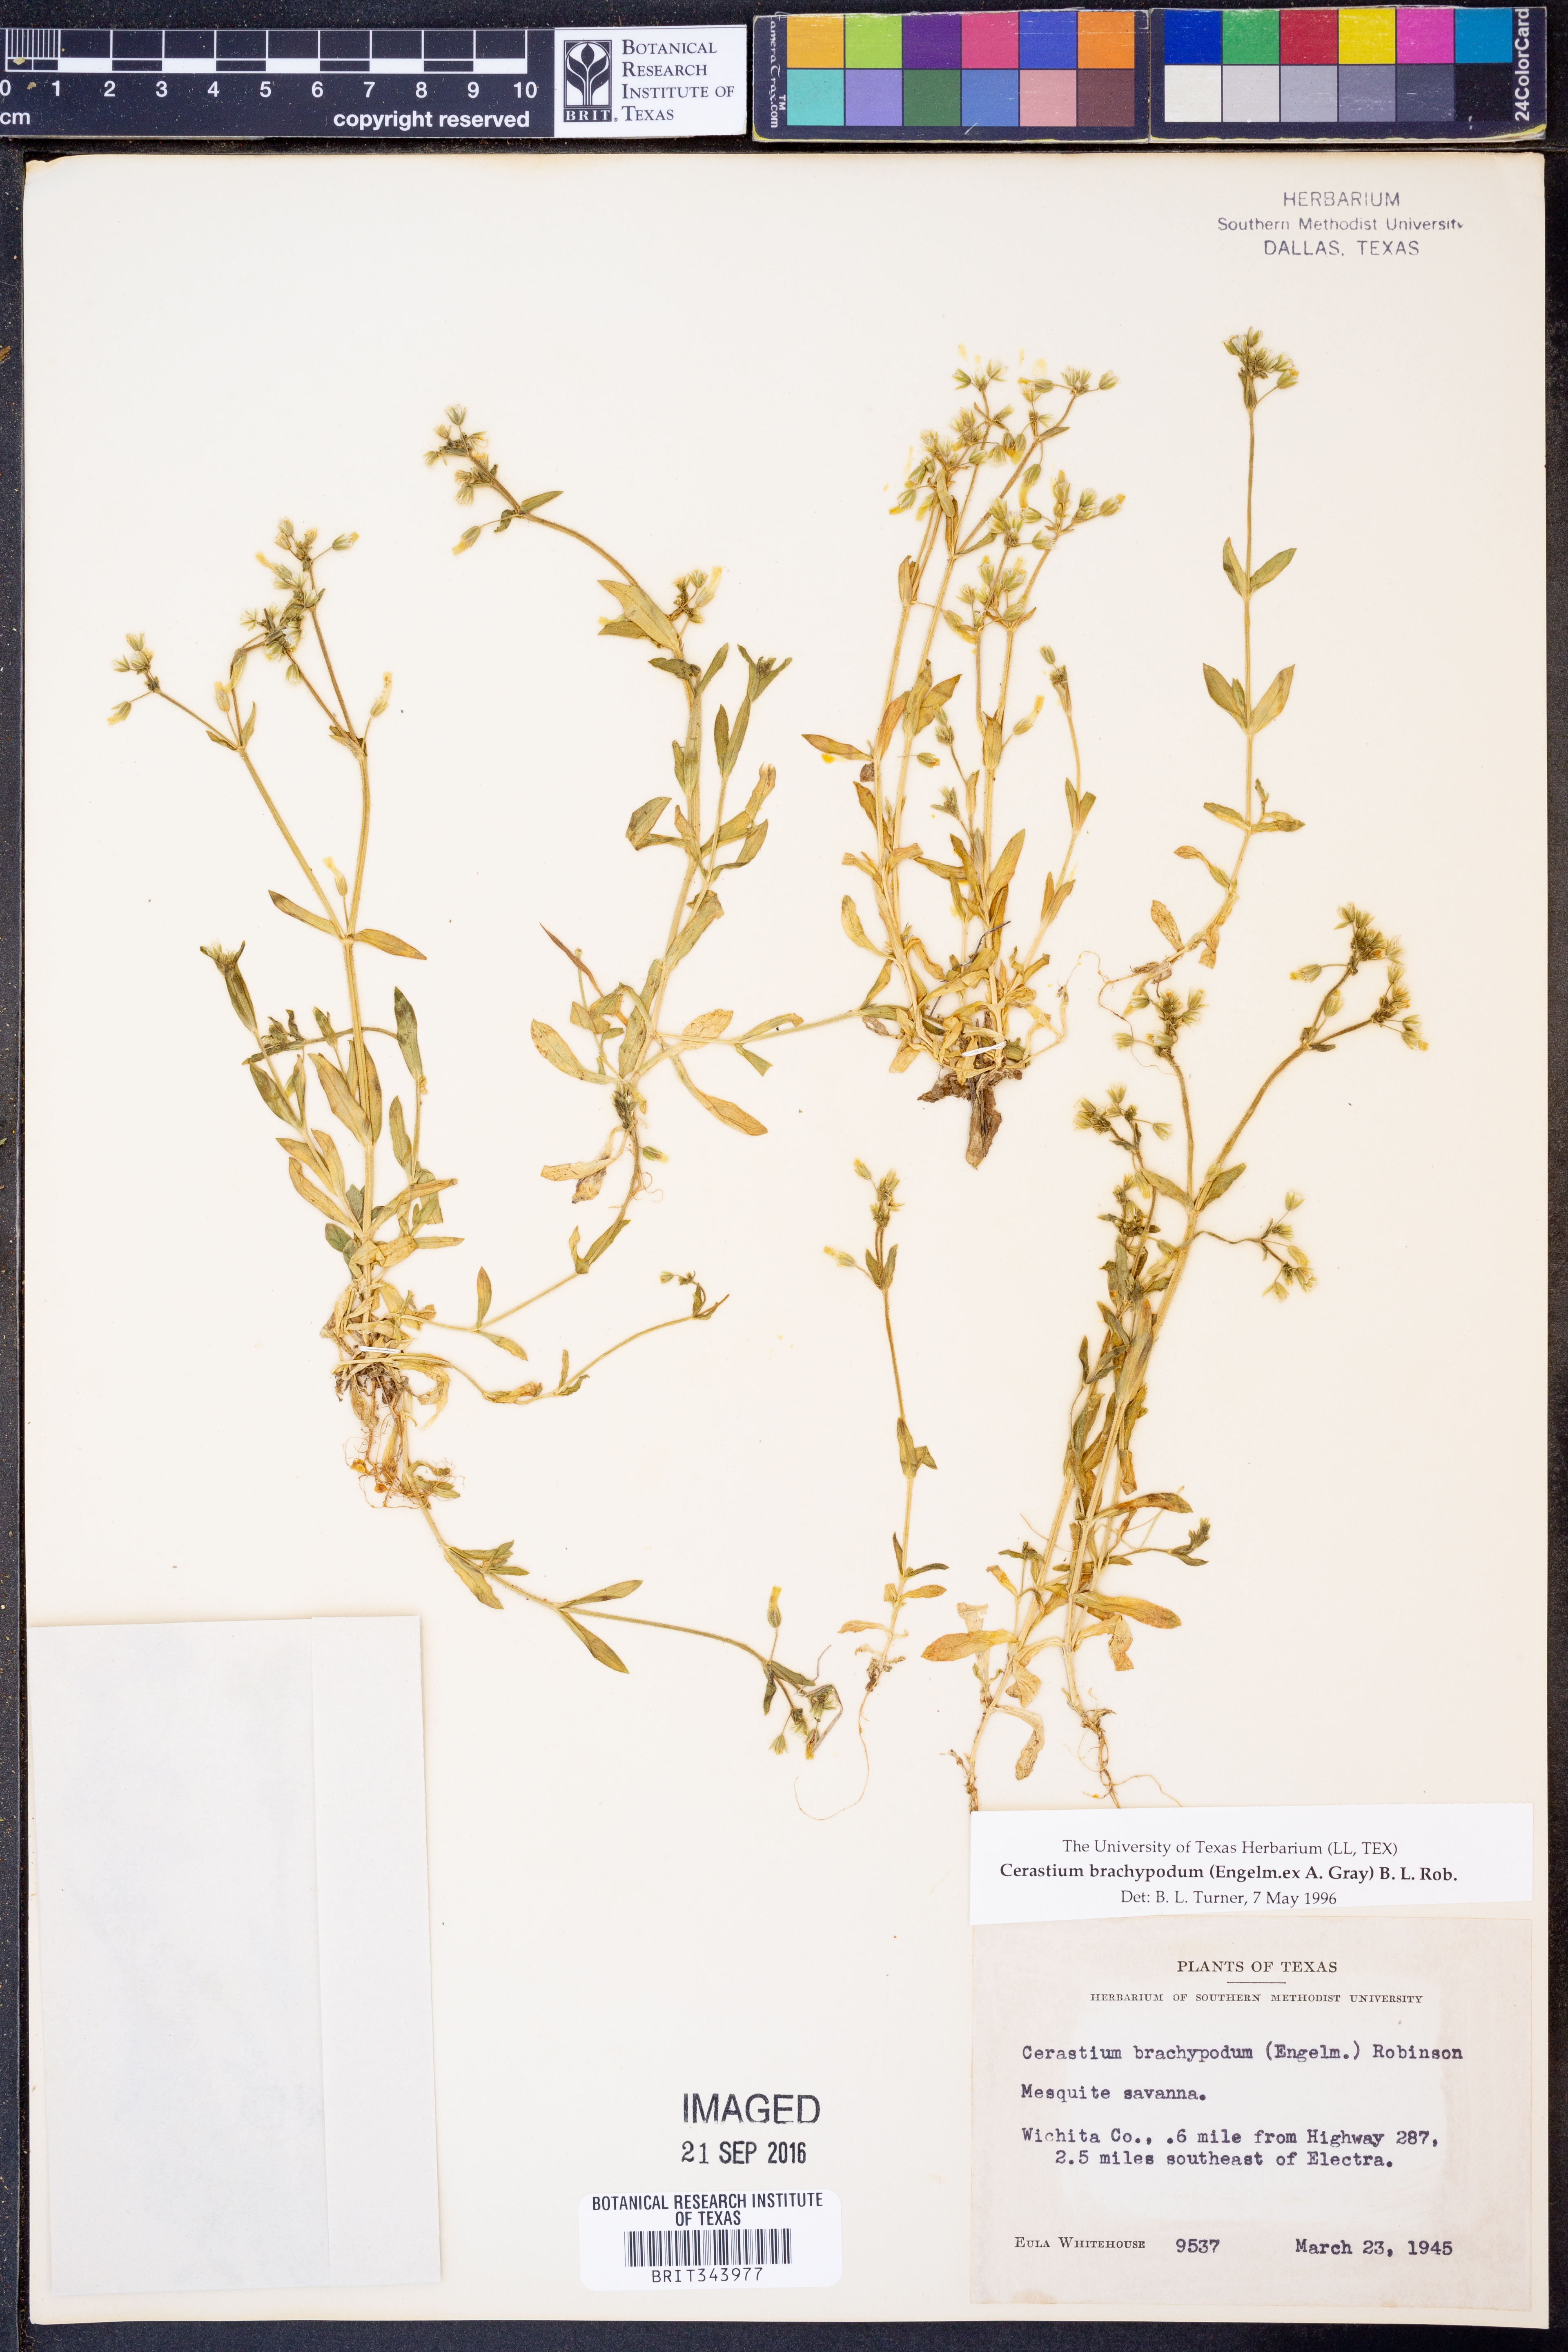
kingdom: Plantae
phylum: Tracheophyta
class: Magnoliopsida
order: Caryophyllales
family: Caryophyllaceae
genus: Cerastium
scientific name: Cerastium brachypodum
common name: Short-pedicelled nodding chickweed
